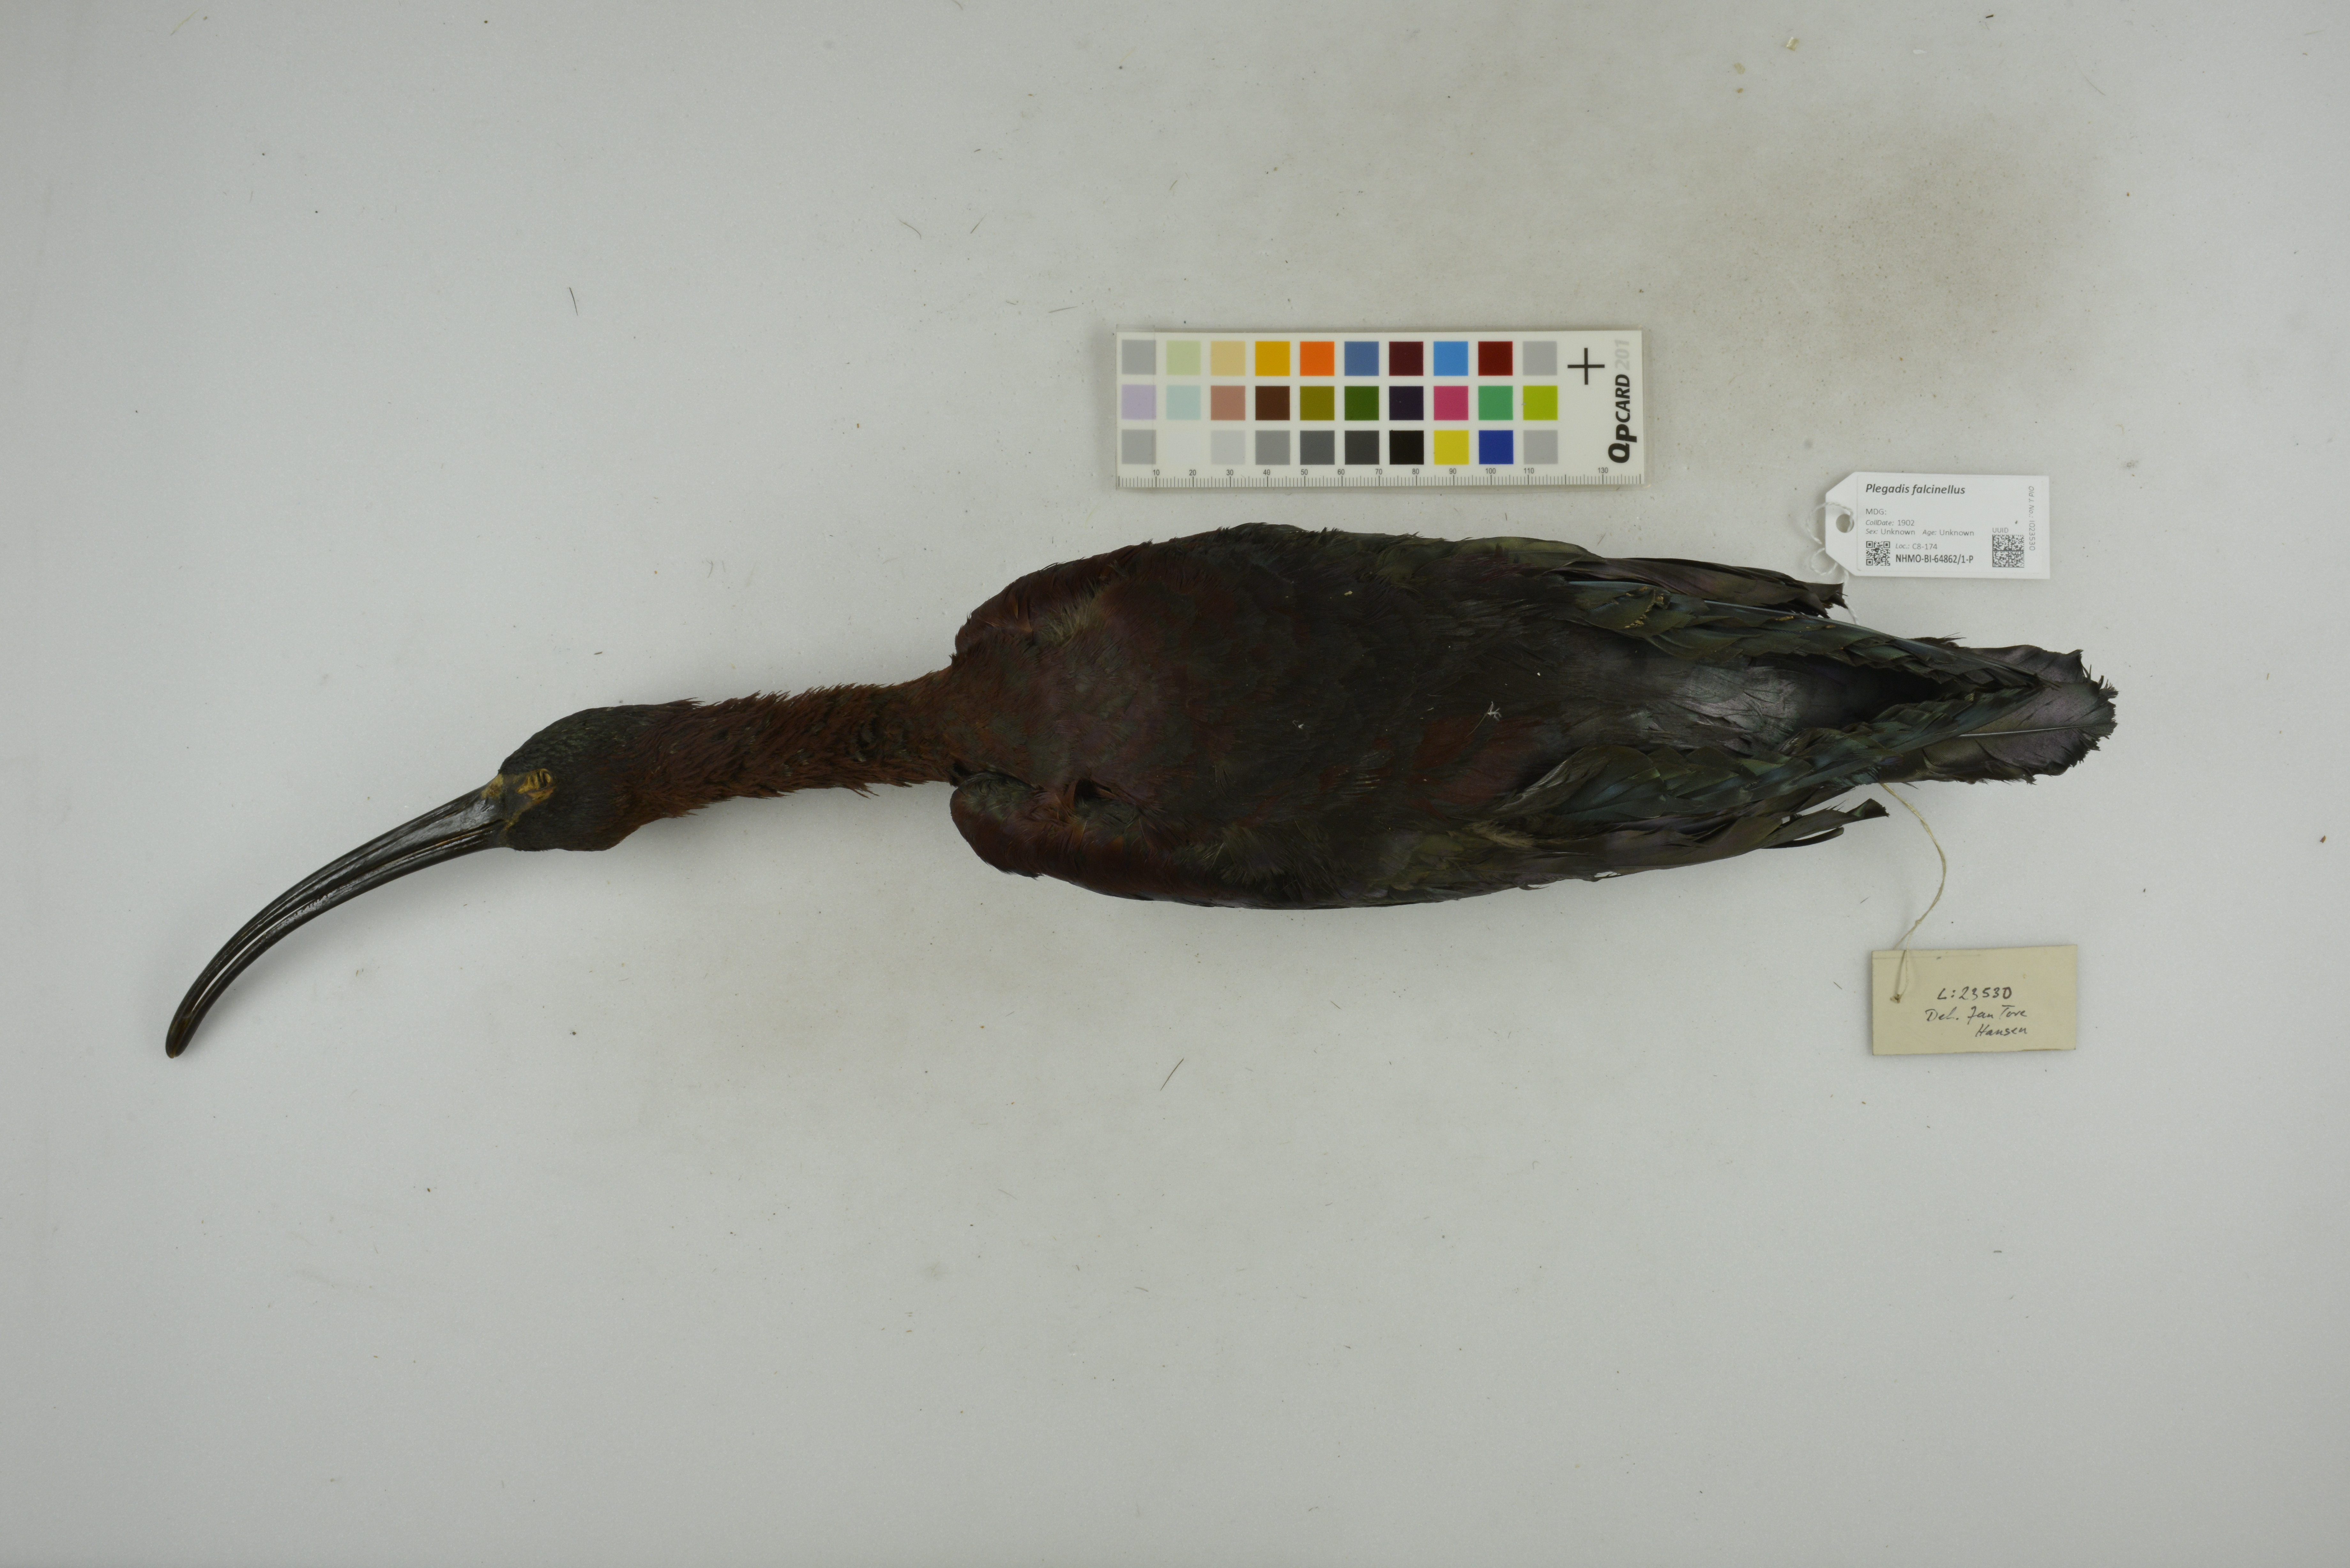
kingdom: Animalia
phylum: Chordata
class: Aves
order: Pelecaniformes
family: Threskiornithidae
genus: Plegadis
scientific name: Plegadis falcinellus
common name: Glossy ibis
